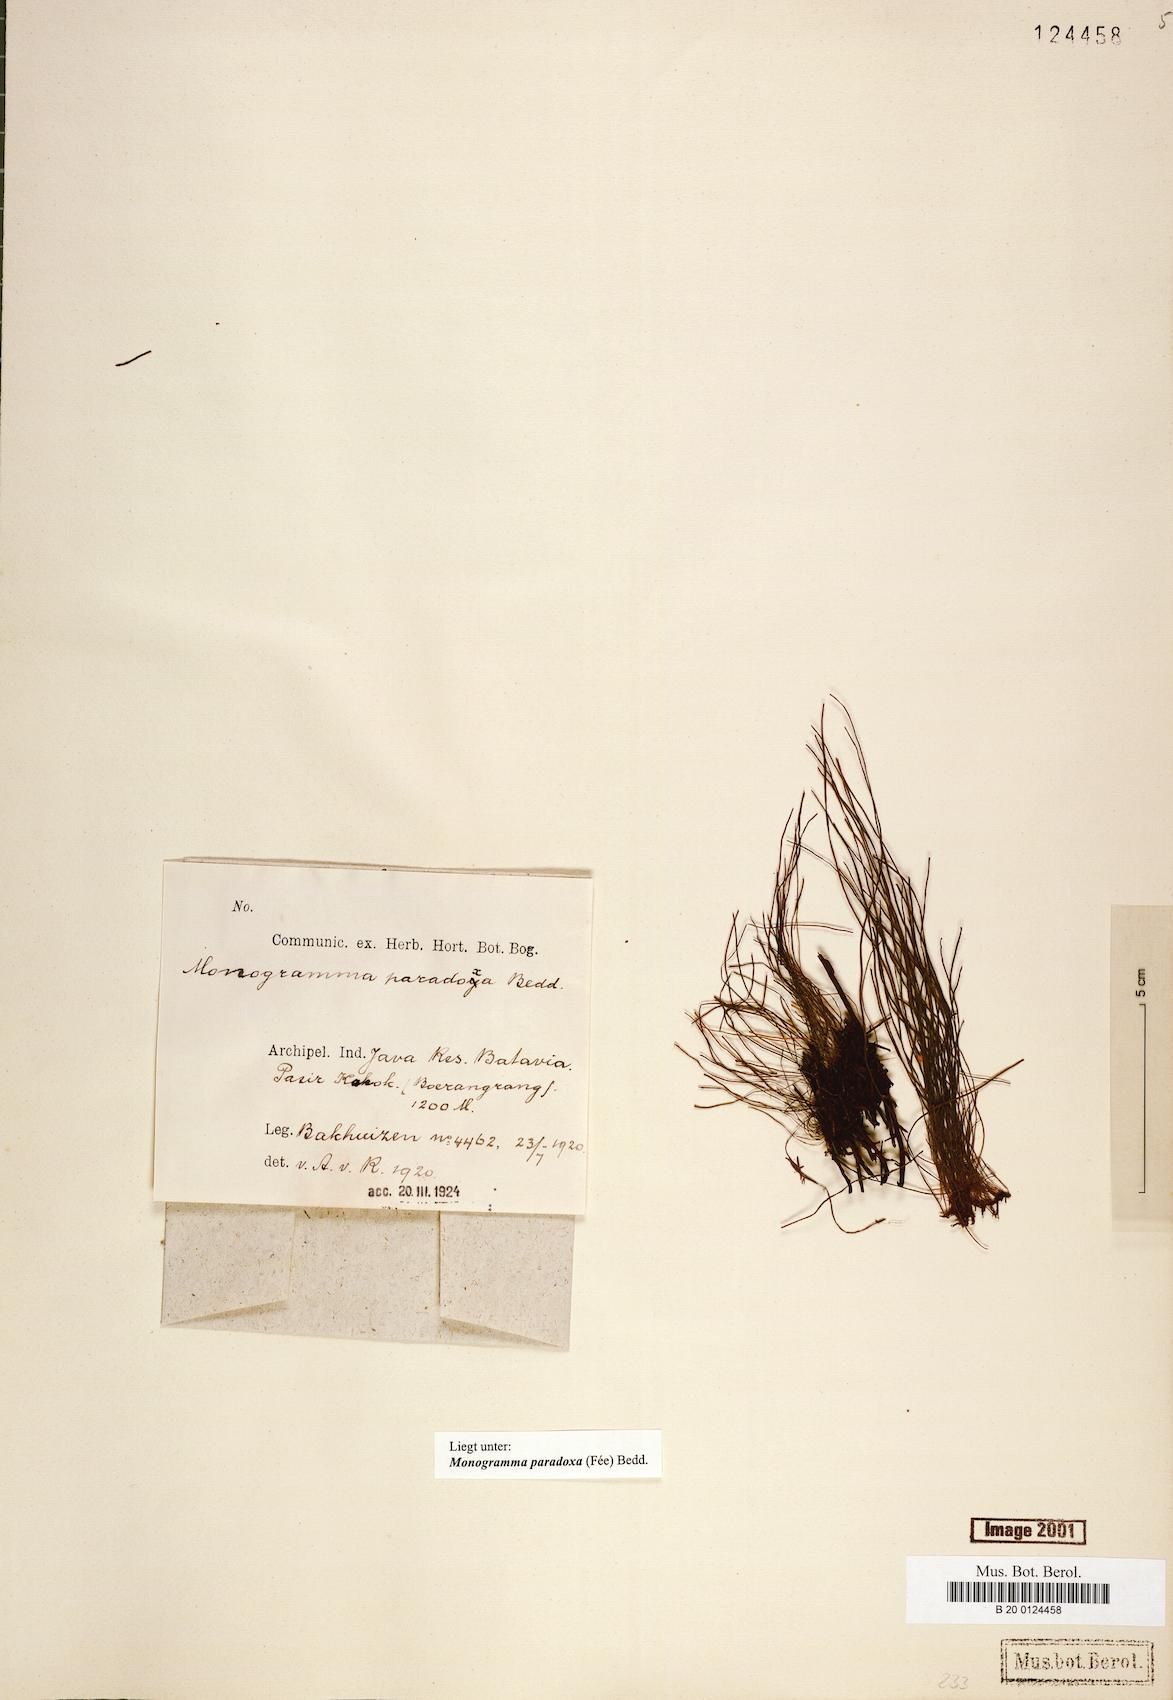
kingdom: Plantae
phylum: Tracheophyta
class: Polypodiopsida
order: Polypodiales
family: Pteridaceae
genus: Vaginularia
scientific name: Vaginularia paradoxa
